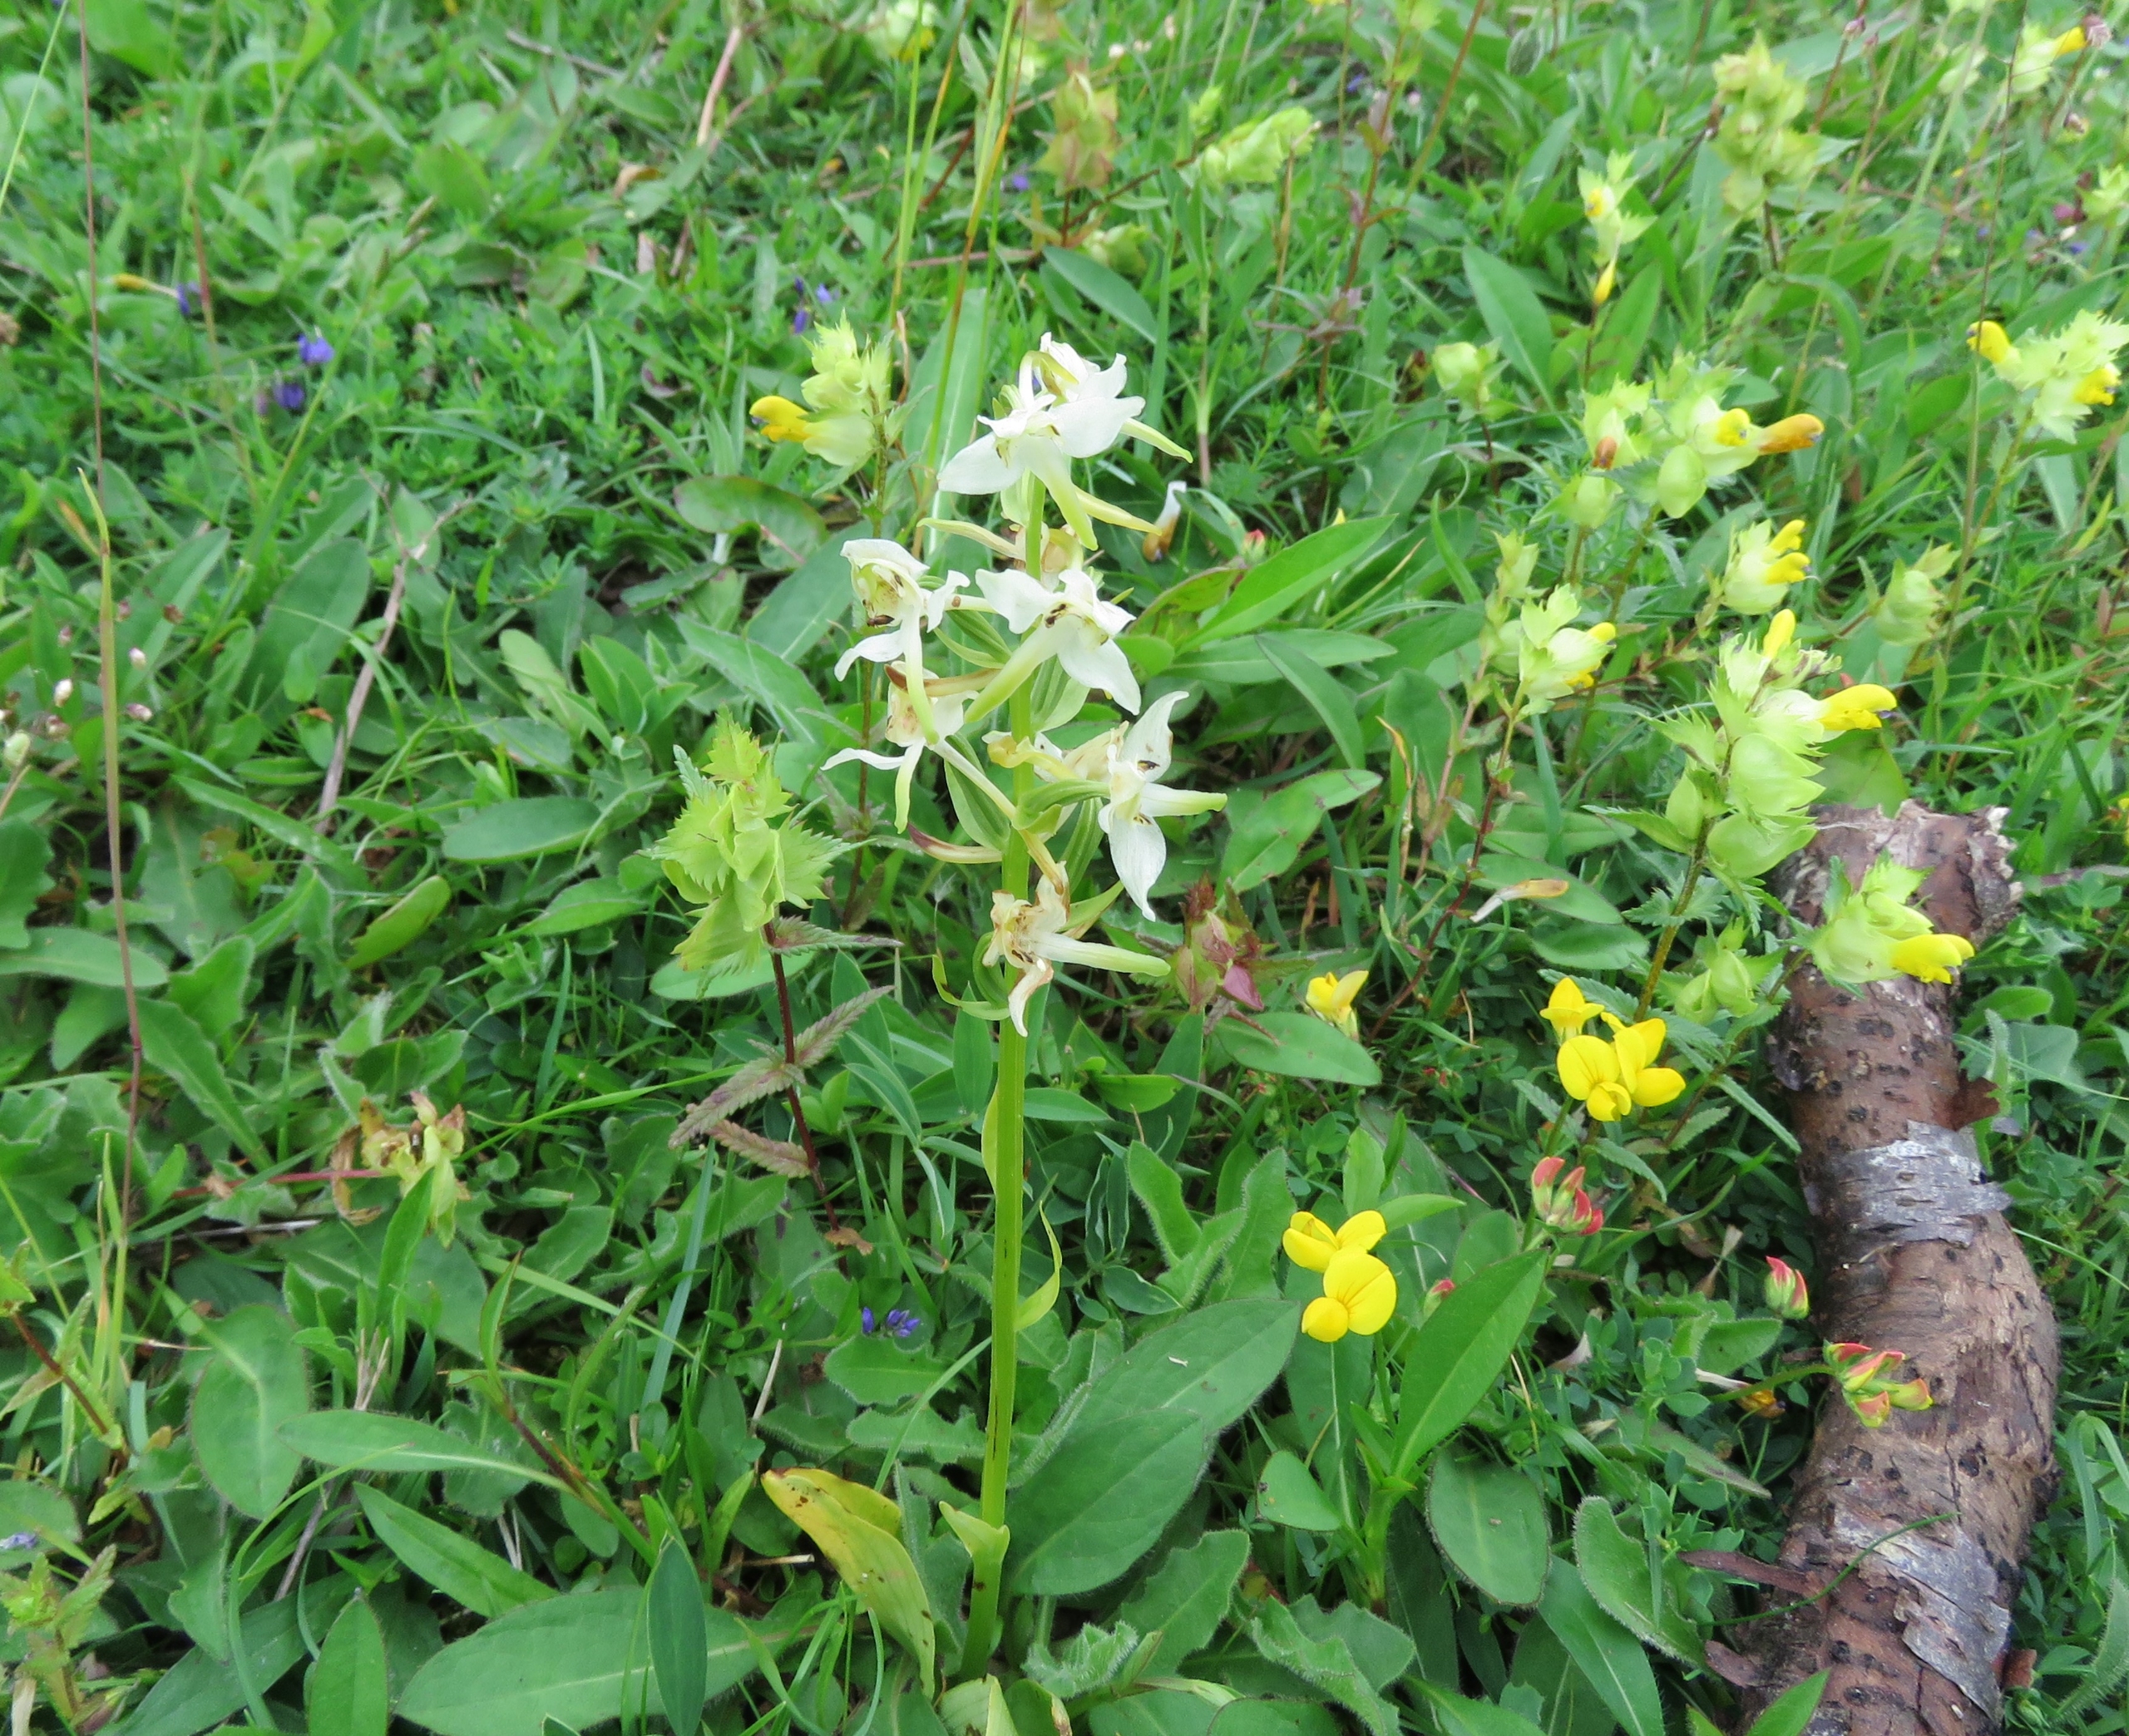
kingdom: Plantae
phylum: Tracheophyta
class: Liliopsida
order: Asparagales
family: Orchidaceae
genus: Platanthera
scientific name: Platanthera chlorantha
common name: Skov-gøgelilje
